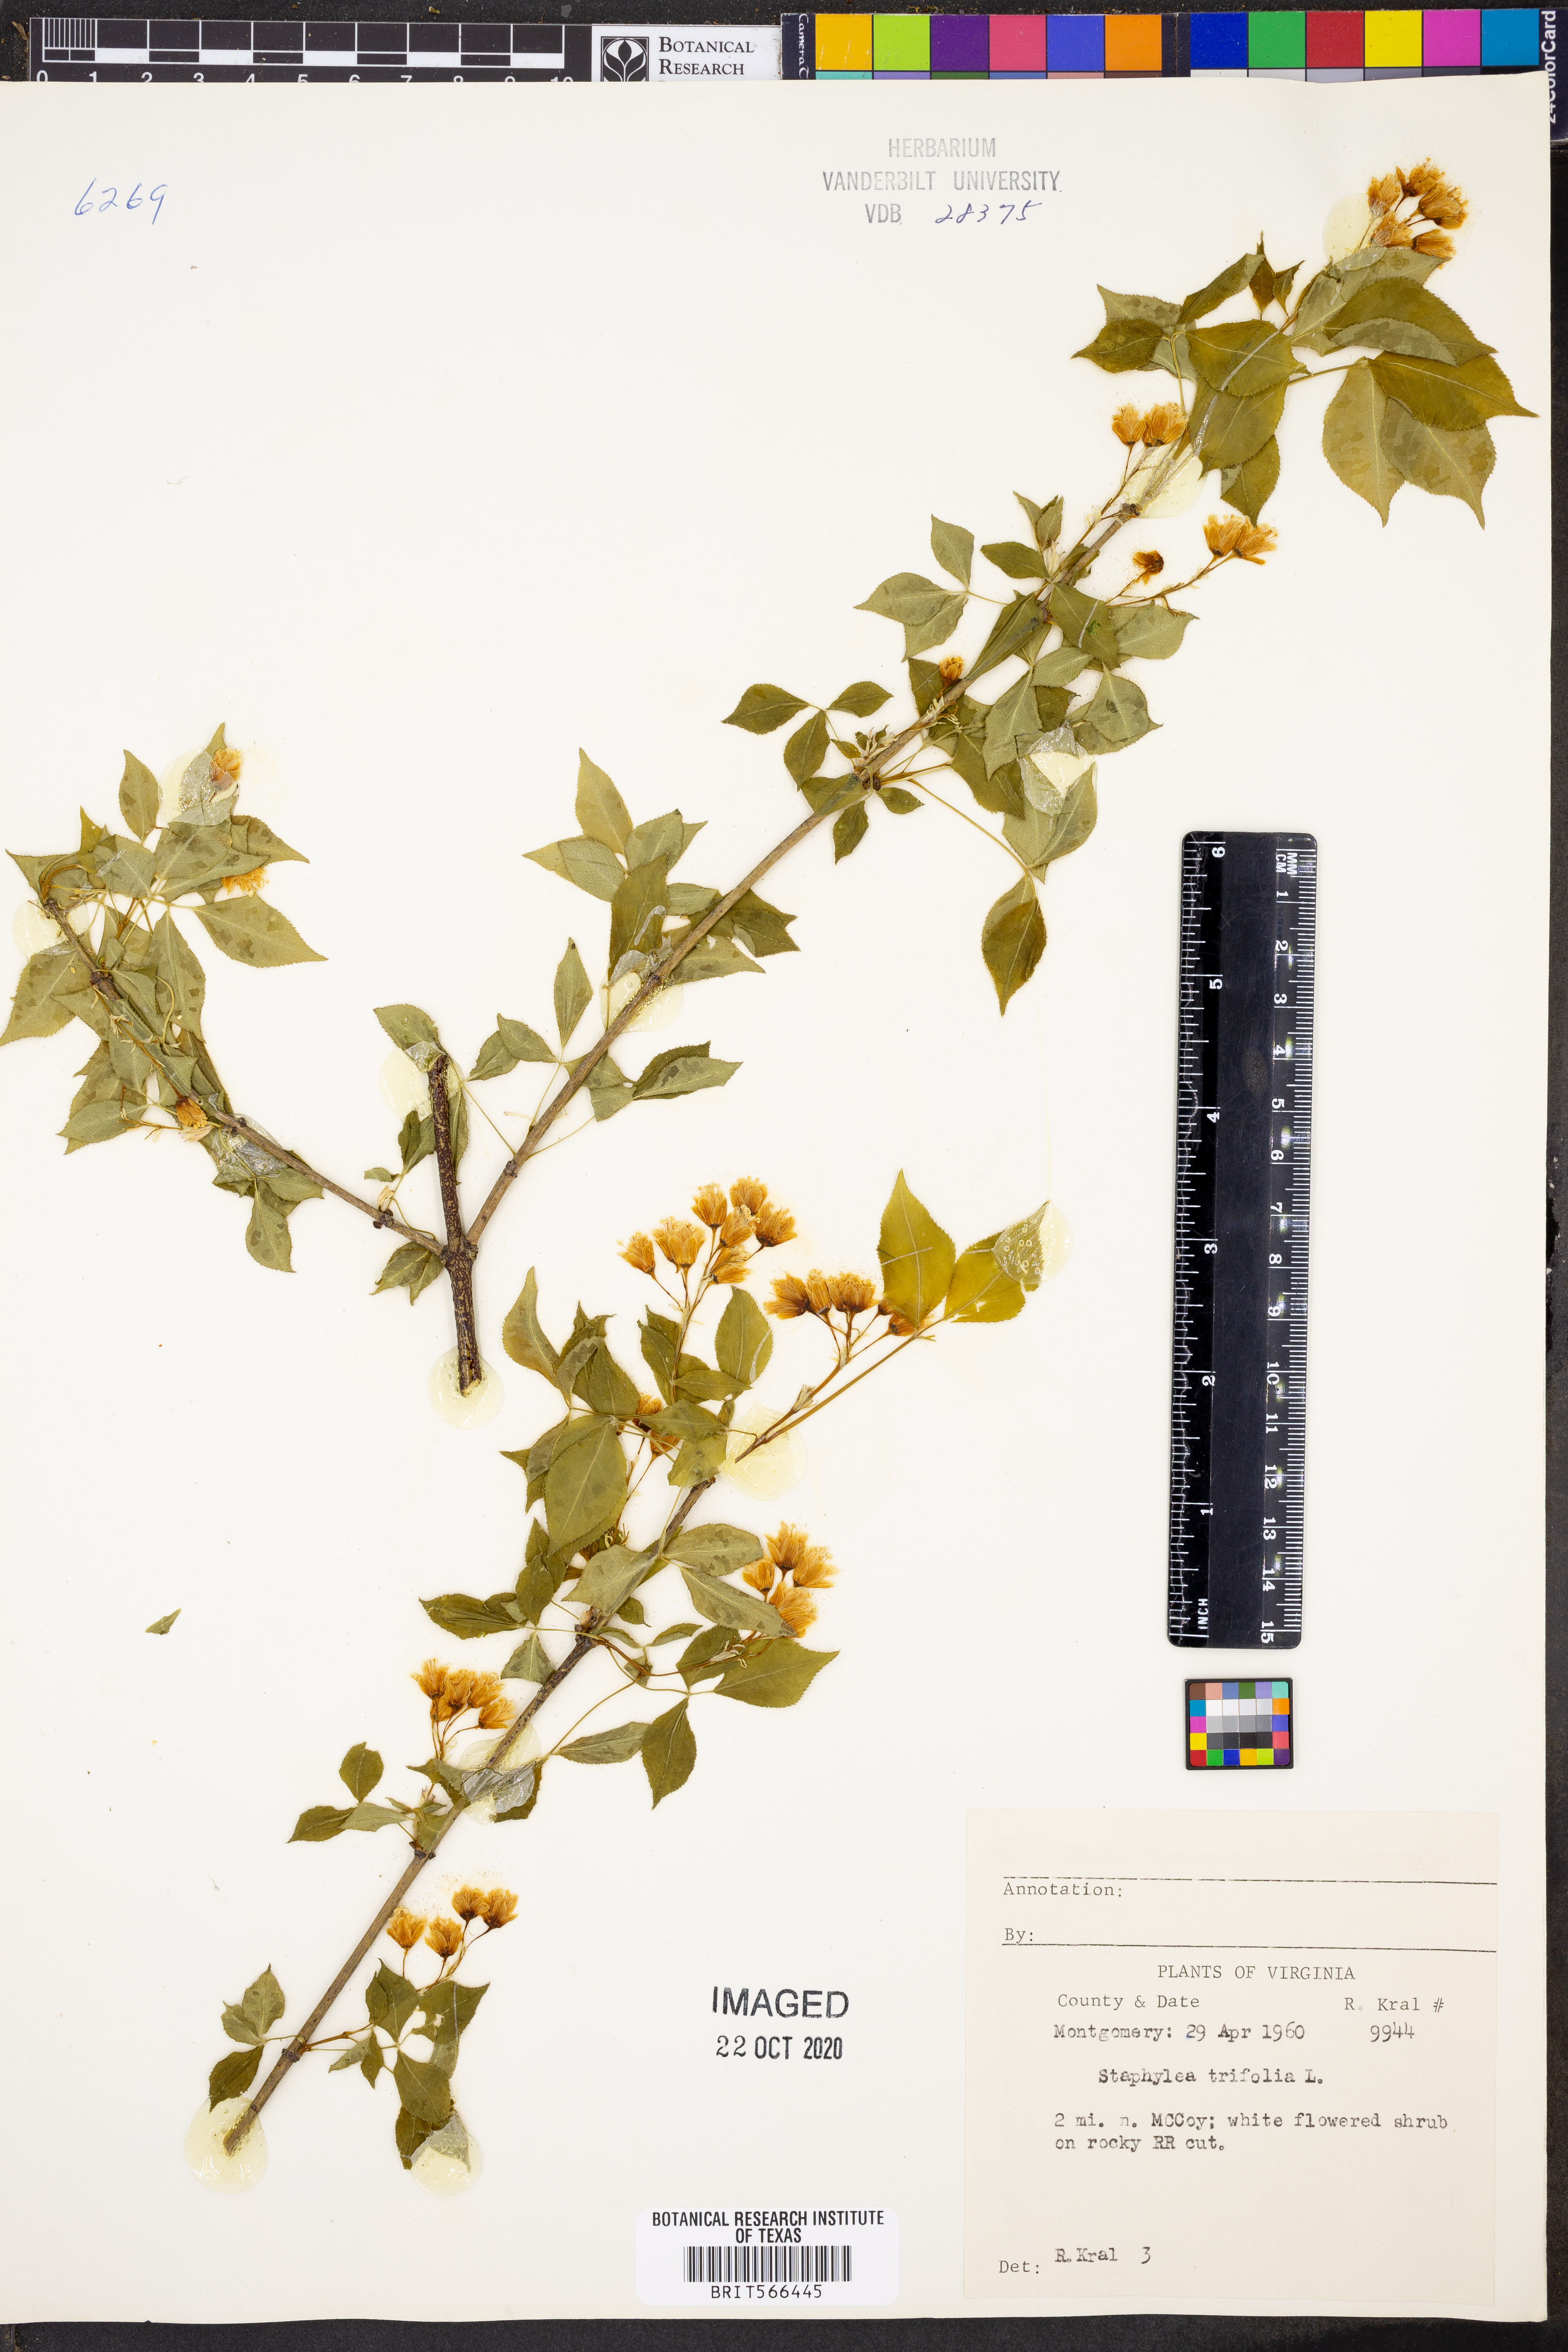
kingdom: Plantae
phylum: Tracheophyta
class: Magnoliopsida
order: Crossosomatales
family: Staphyleaceae
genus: Staphylea
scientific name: Staphylea trifolia
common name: American bladdernut
